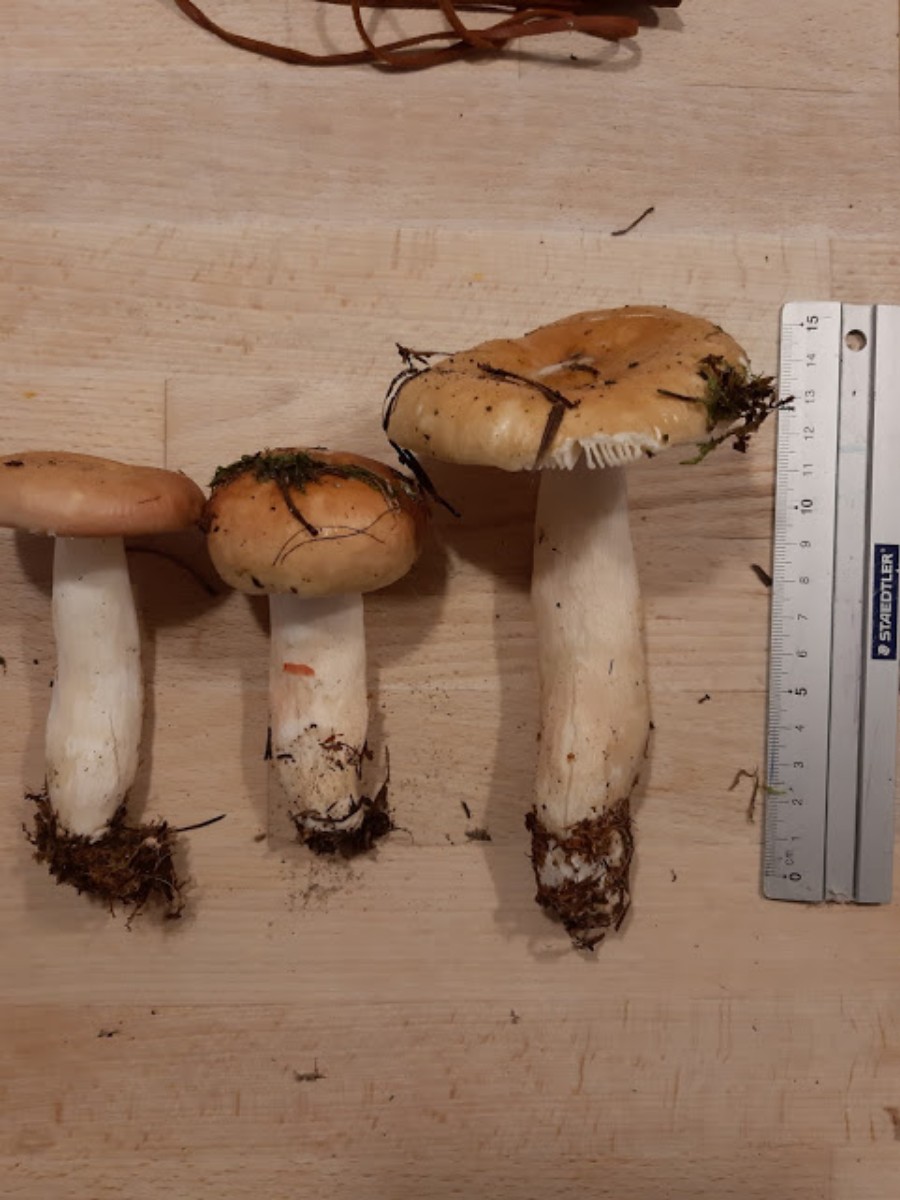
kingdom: Fungi
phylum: Basidiomycota
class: Agaricomycetes
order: Russulales
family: Russulaceae
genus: Russula
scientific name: Russula
